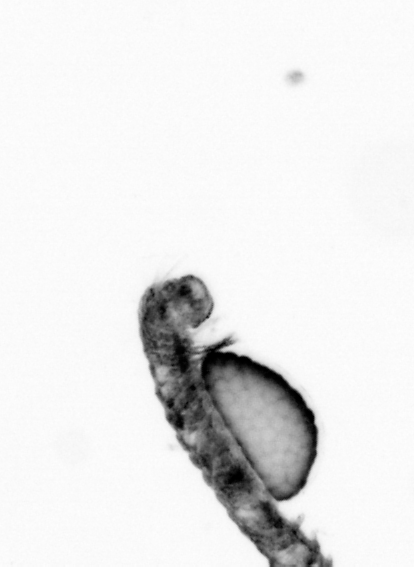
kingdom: Animalia
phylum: Annelida
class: Polychaeta
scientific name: Polychaeta
